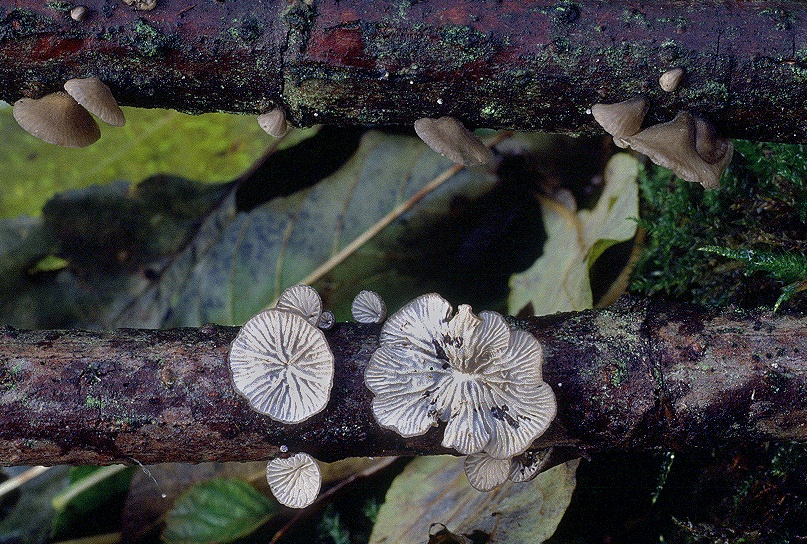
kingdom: Fungi
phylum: Basidiomycota
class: Agaricomycetes
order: Agaricales
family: Pleurotaceae
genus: Hohenbuehelia
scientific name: Hohenbuehelia cyphelliformis
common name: urte-filthat
